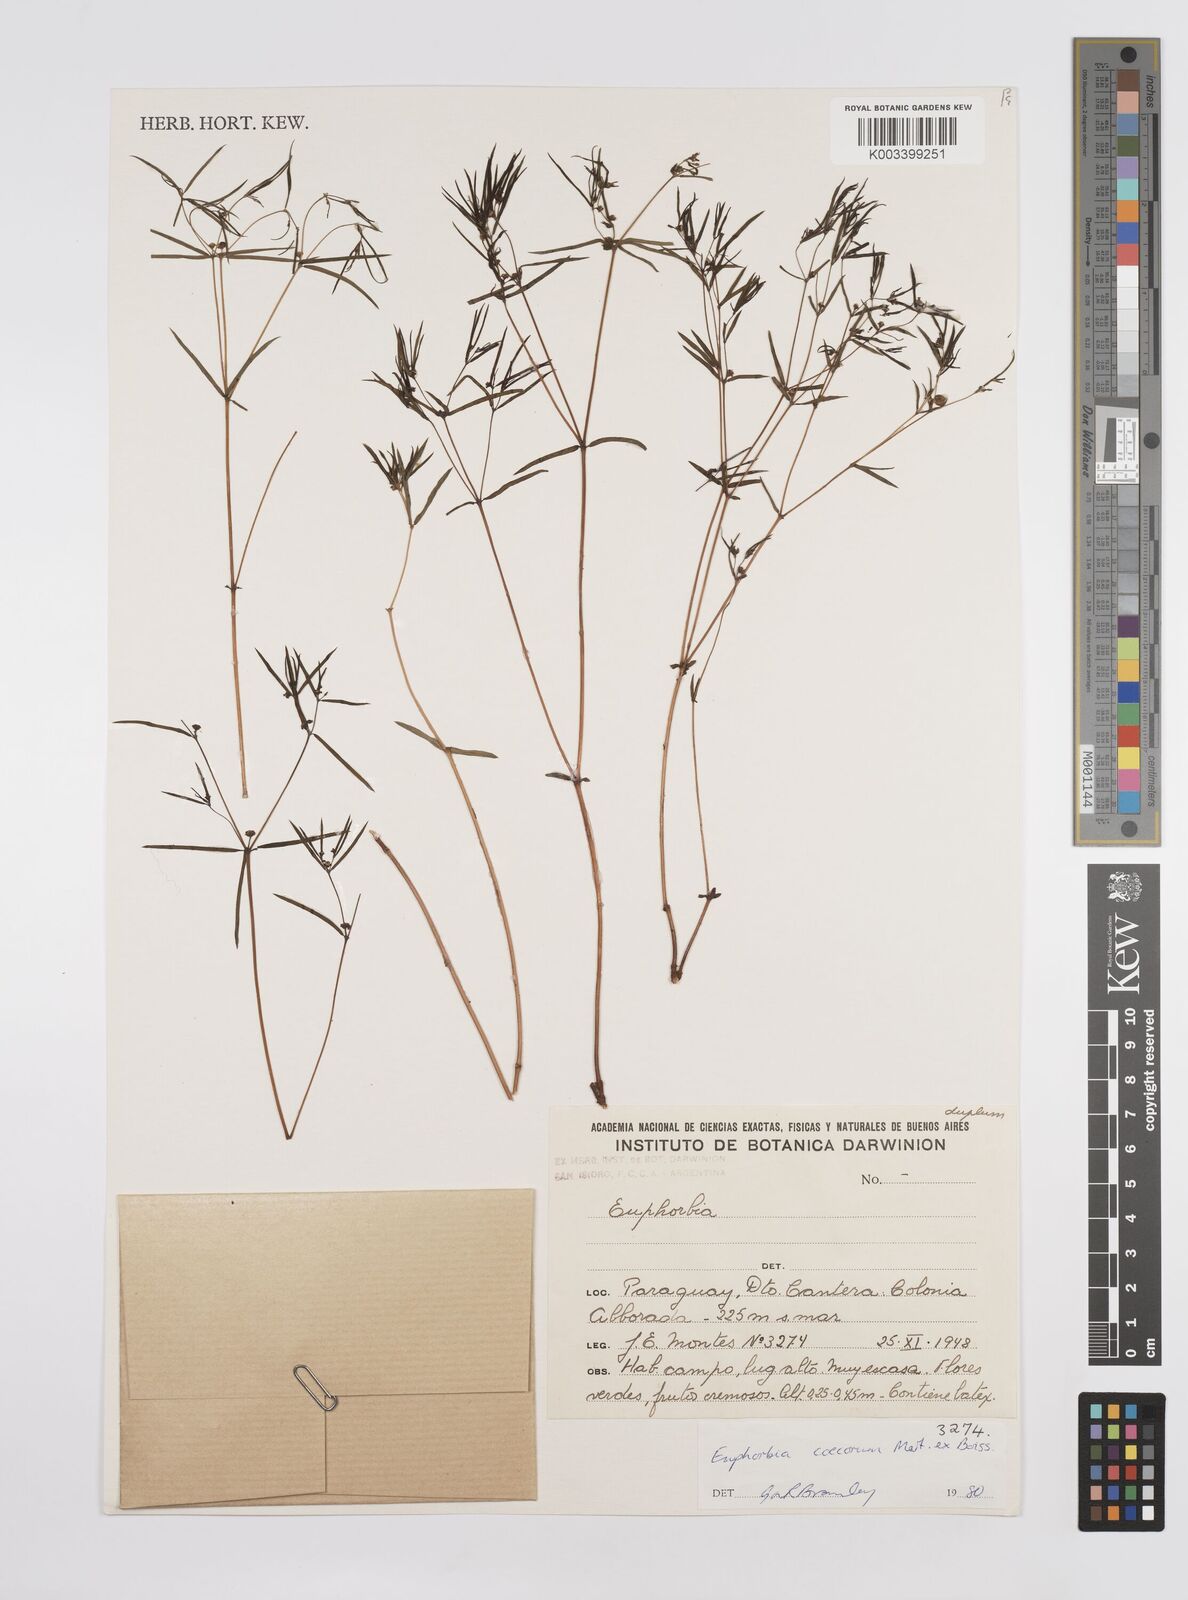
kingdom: Plantae
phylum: Tracheophyta
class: Magnoliopsida
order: Malpighiales
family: Euphorbiaceae
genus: Euphorbia
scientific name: Euphorbia potentilloides
